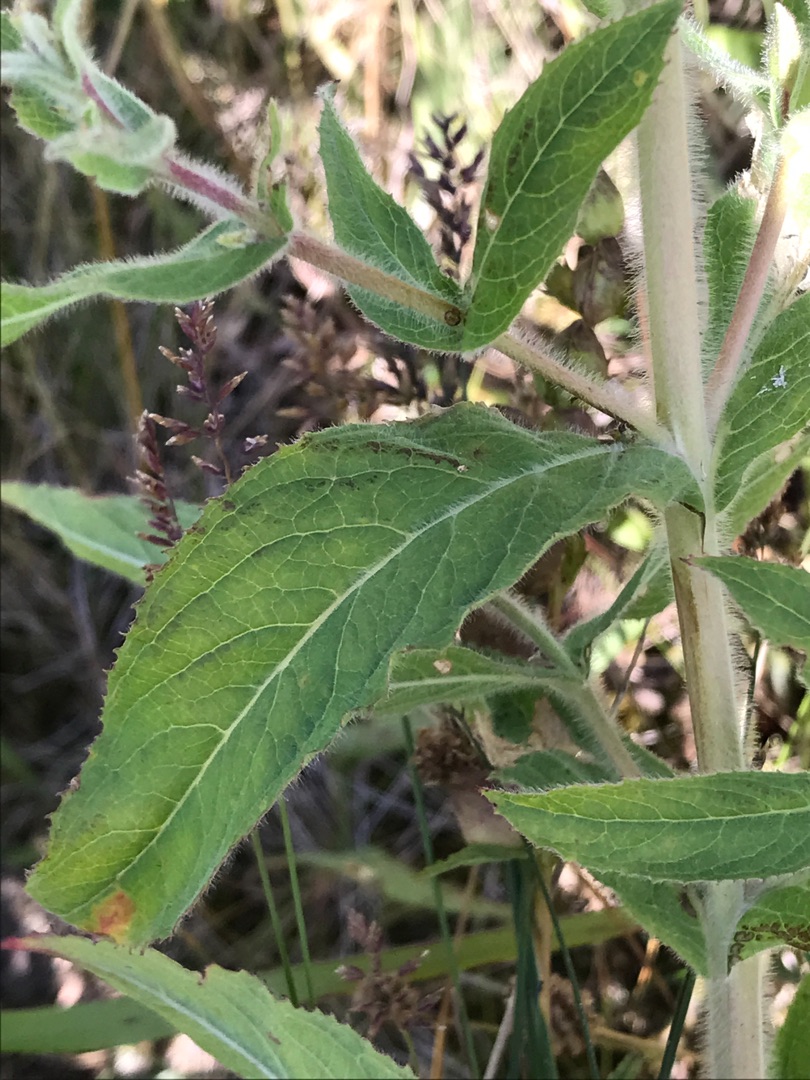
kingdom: Plantae
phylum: Tracheophyta
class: Magnoliopsida
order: Myrtales
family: Onagraceae
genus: Epilobium
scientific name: Epilobium hirsutum
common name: Lådden dueurt
